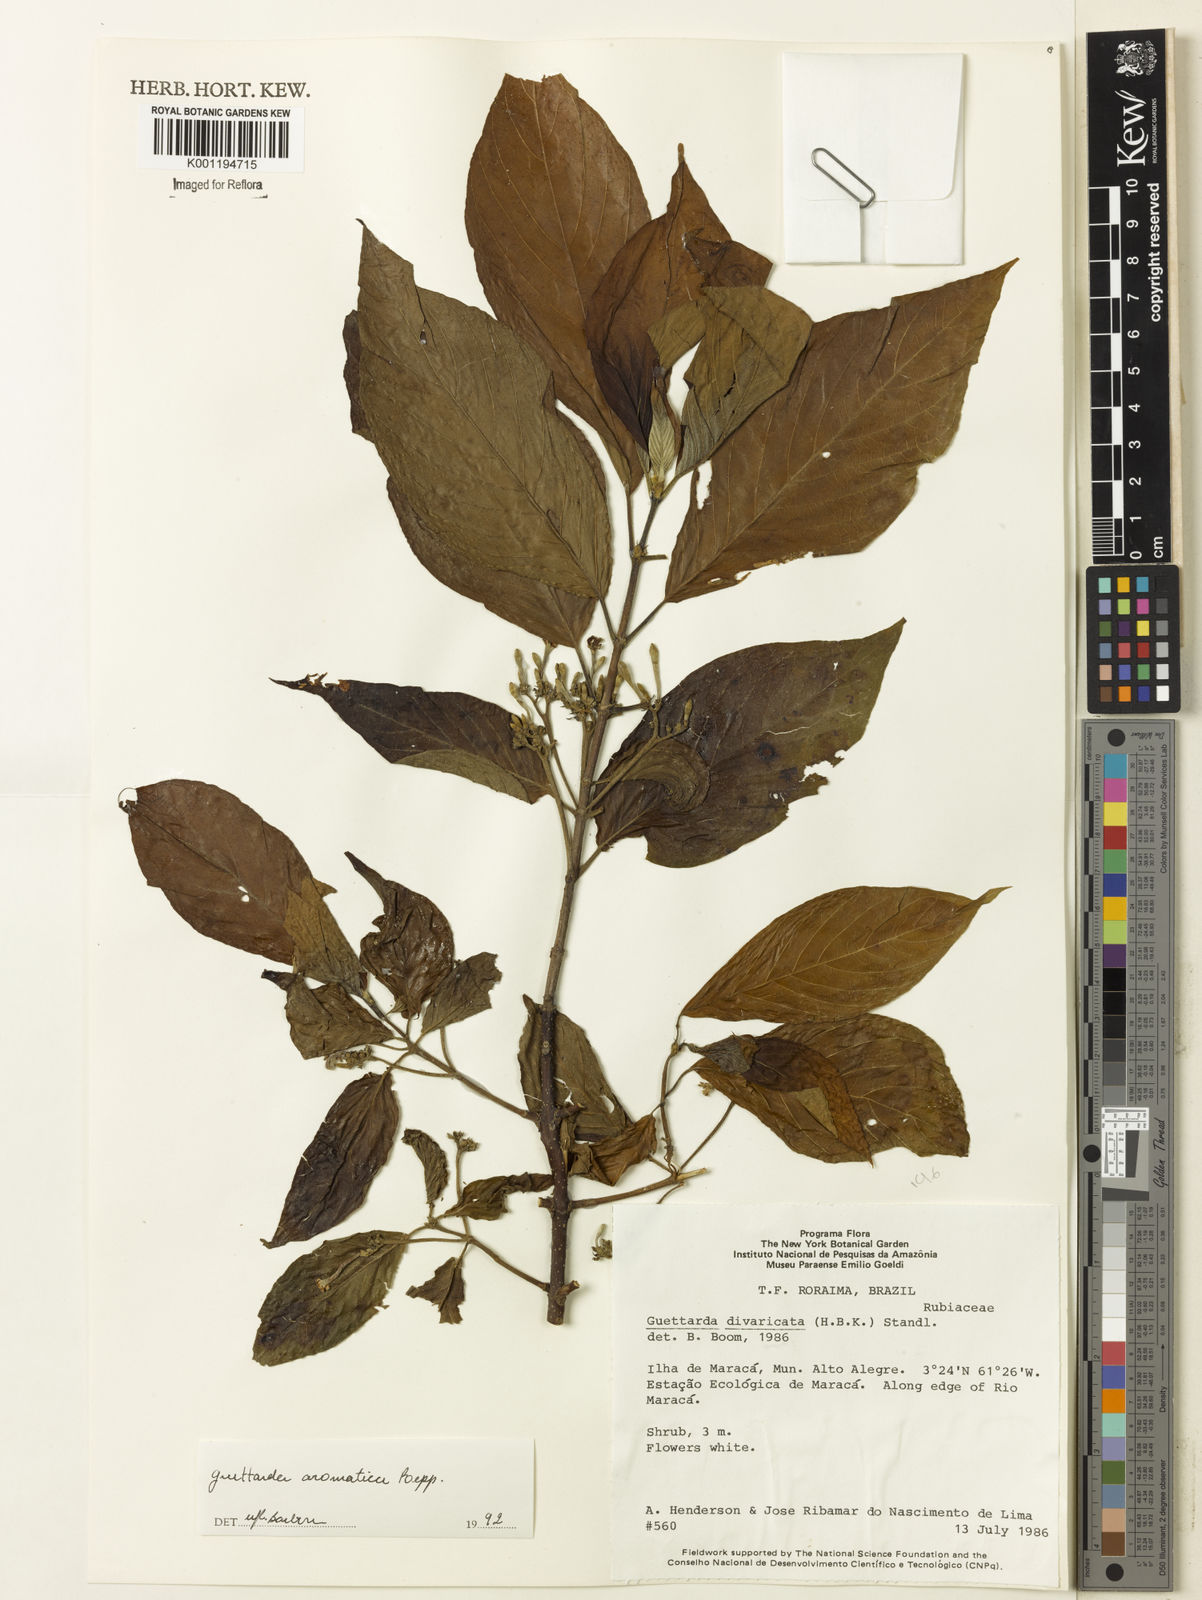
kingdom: Plantae
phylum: Tracheophyta
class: Magnoliopsida
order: Gentianales
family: Rubiaceae
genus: Guettarda
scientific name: Guettarda aromatica
